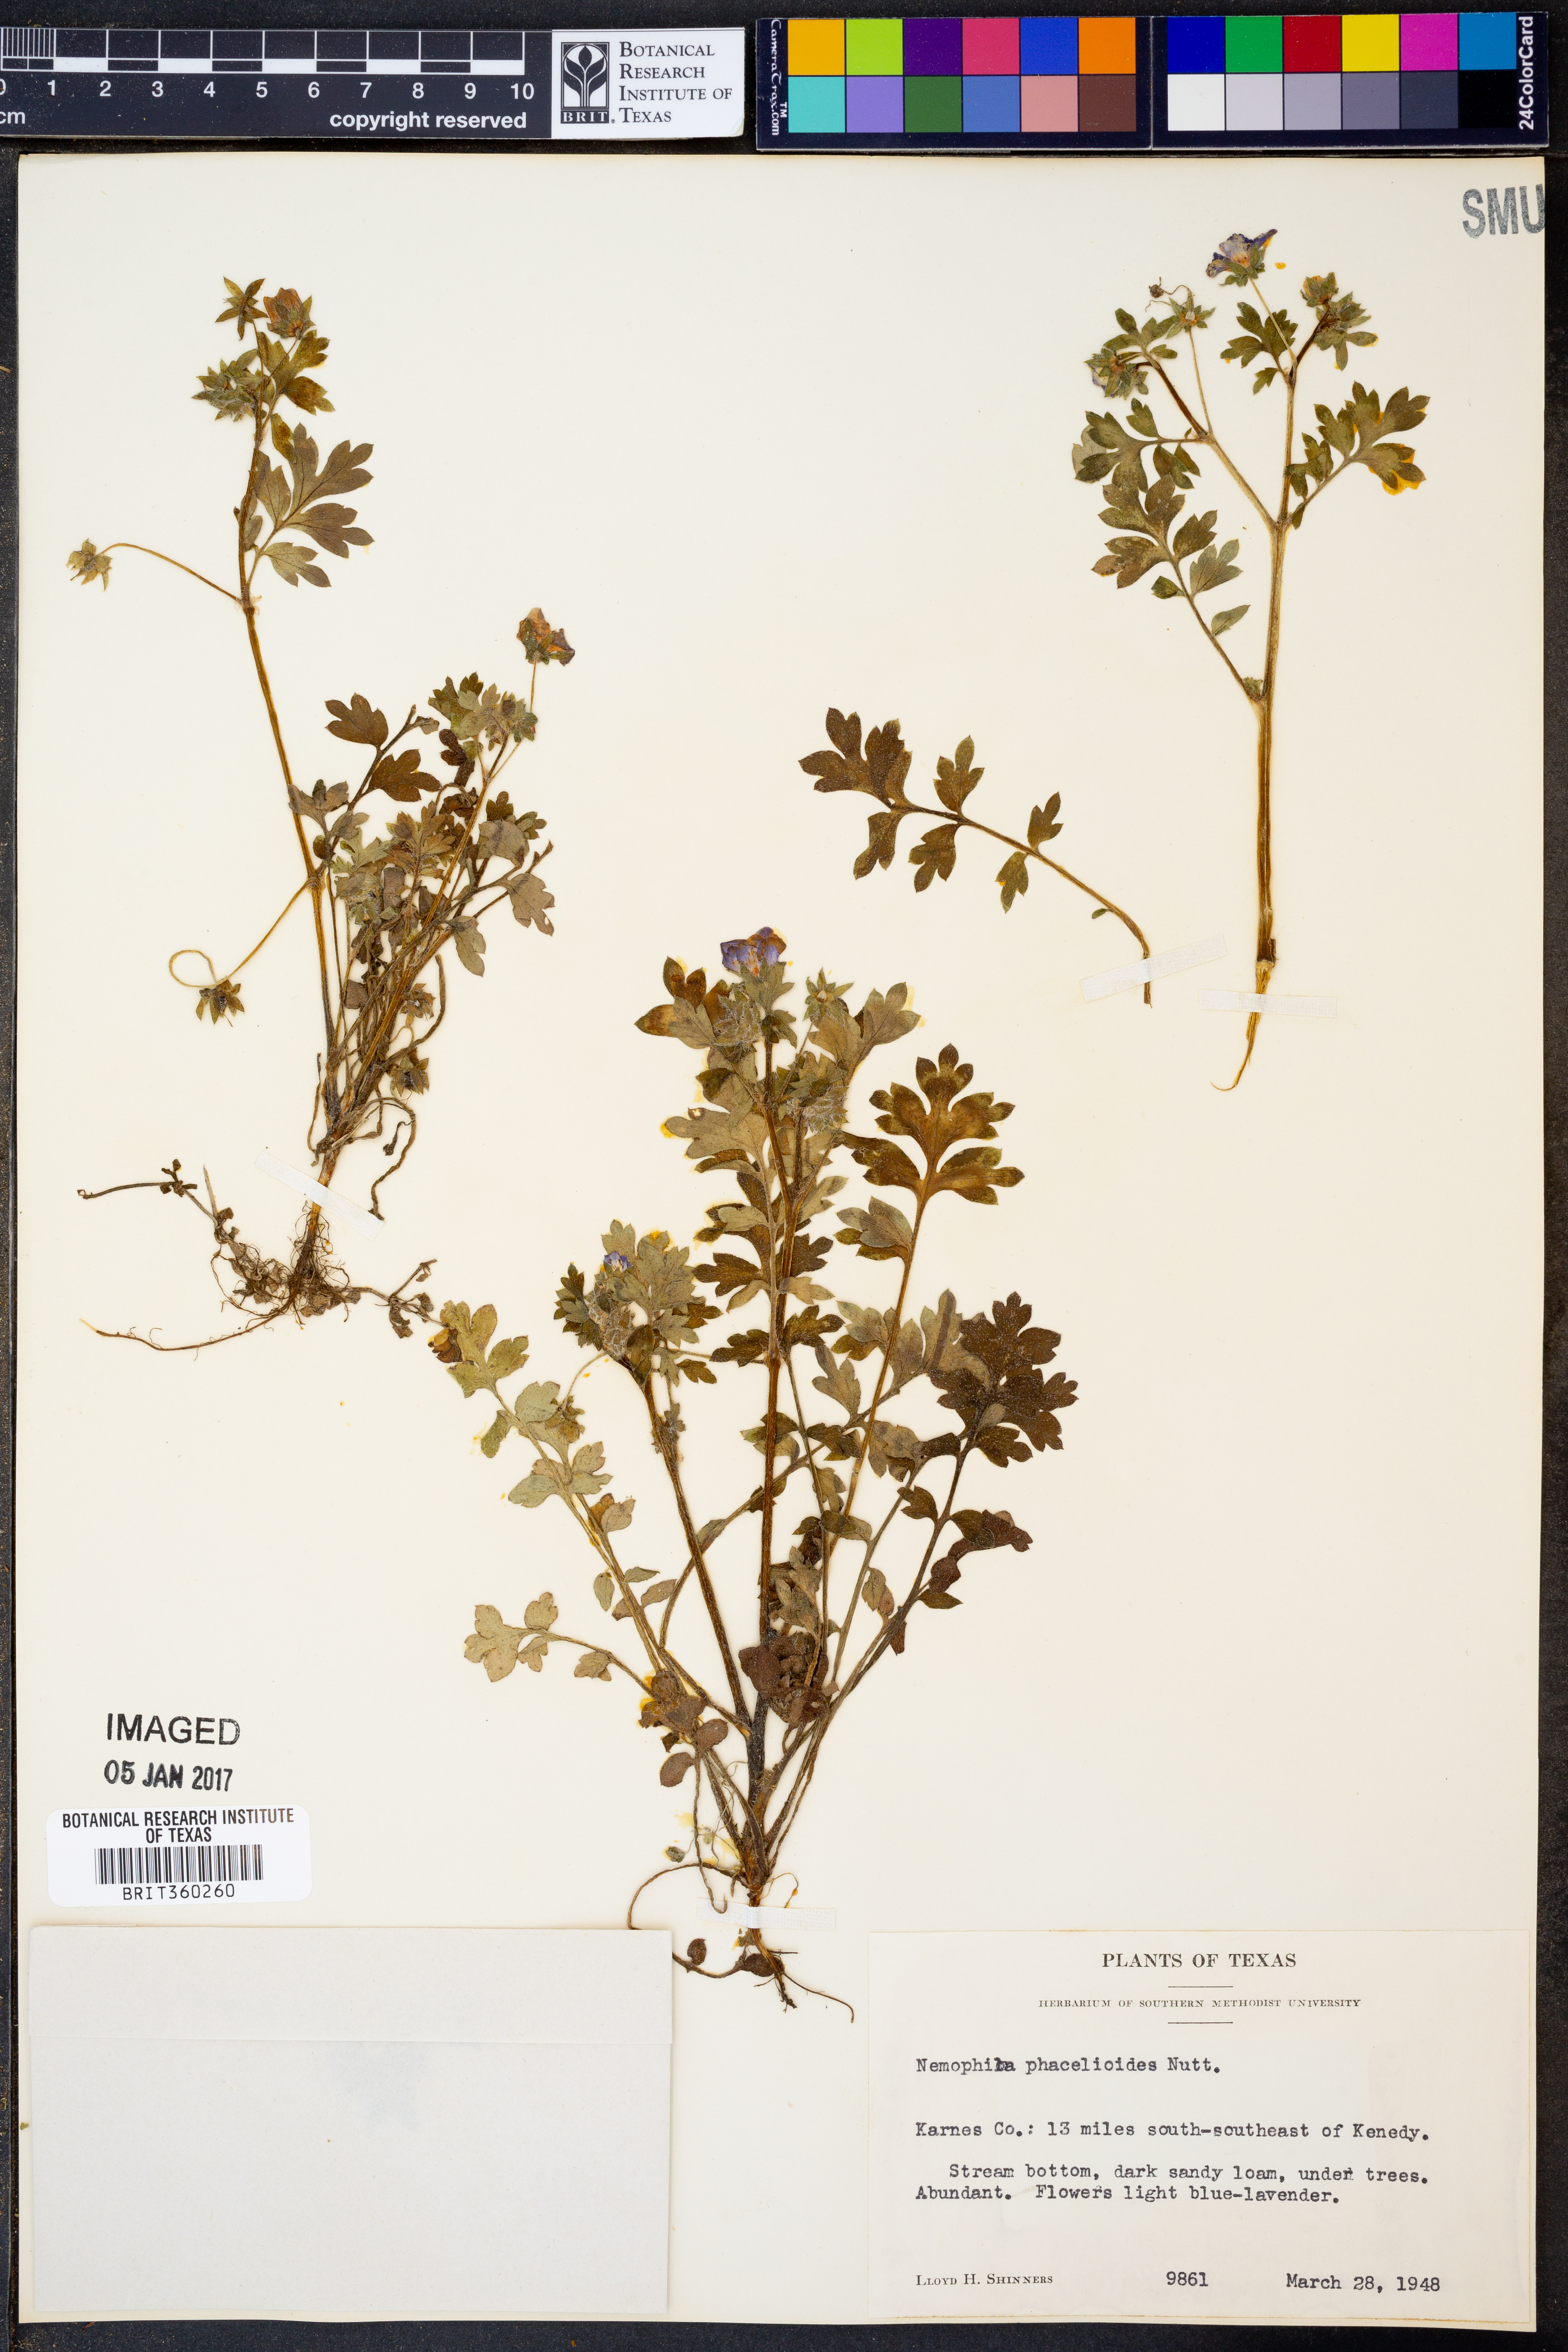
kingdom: Plantae
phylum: Tracheophyta
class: Magnoliopsida
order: Boraginales
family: Hydrophyllaceae
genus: Nemophila
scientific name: Nemophila phacelioides
